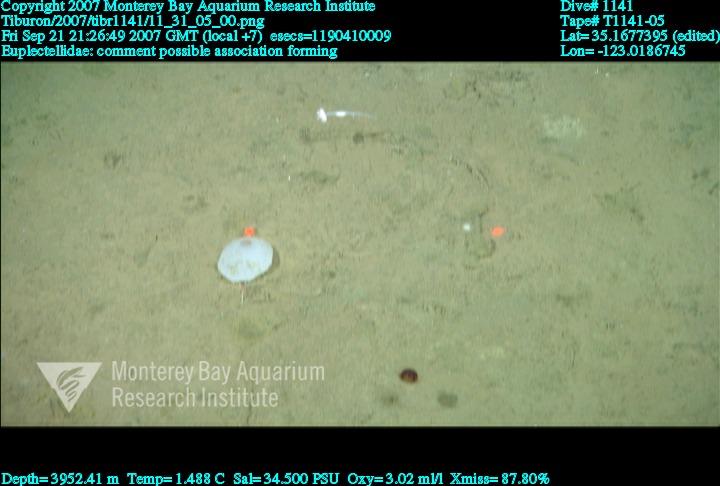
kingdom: Animalia
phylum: Porifera
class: Hexactinellida
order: Lyssacinosida
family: Euplectellidae
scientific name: Euplectellidae
